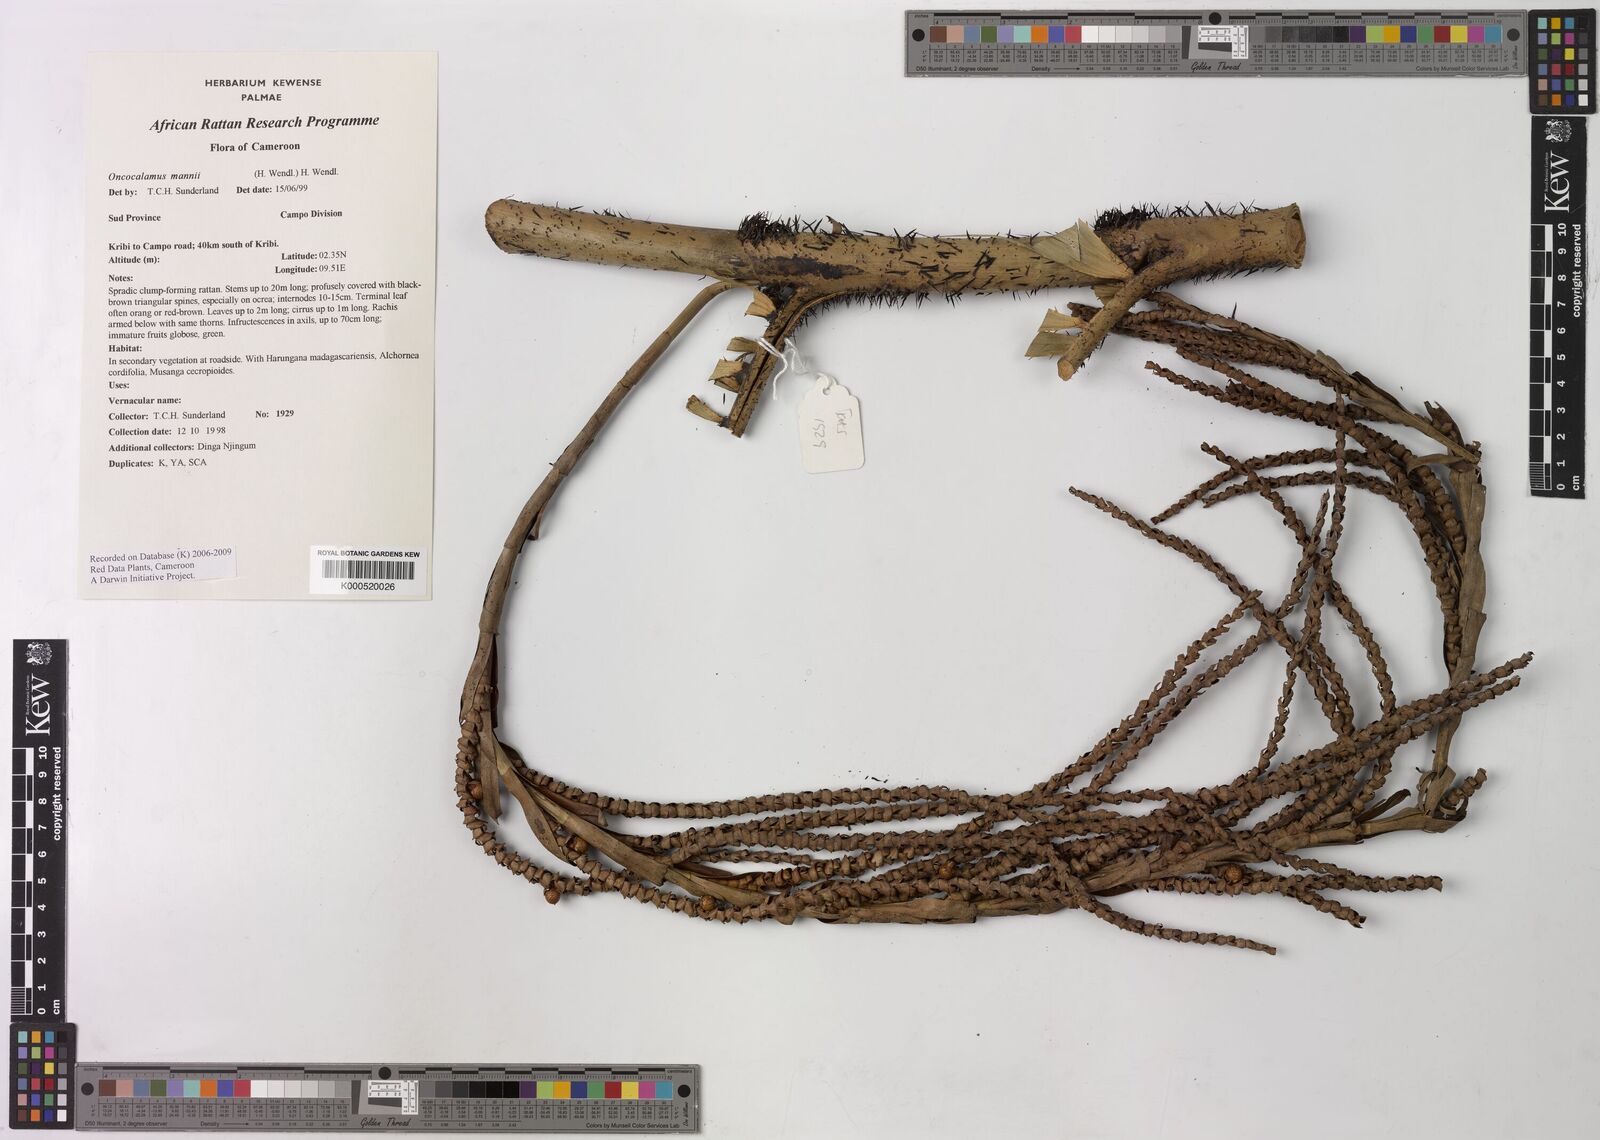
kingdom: Plantae
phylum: Tracheophyta
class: Liliopsida
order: Arecales
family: Arecaceae
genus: Oncocalamus
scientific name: Oncocalamus mannii
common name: Rattan
